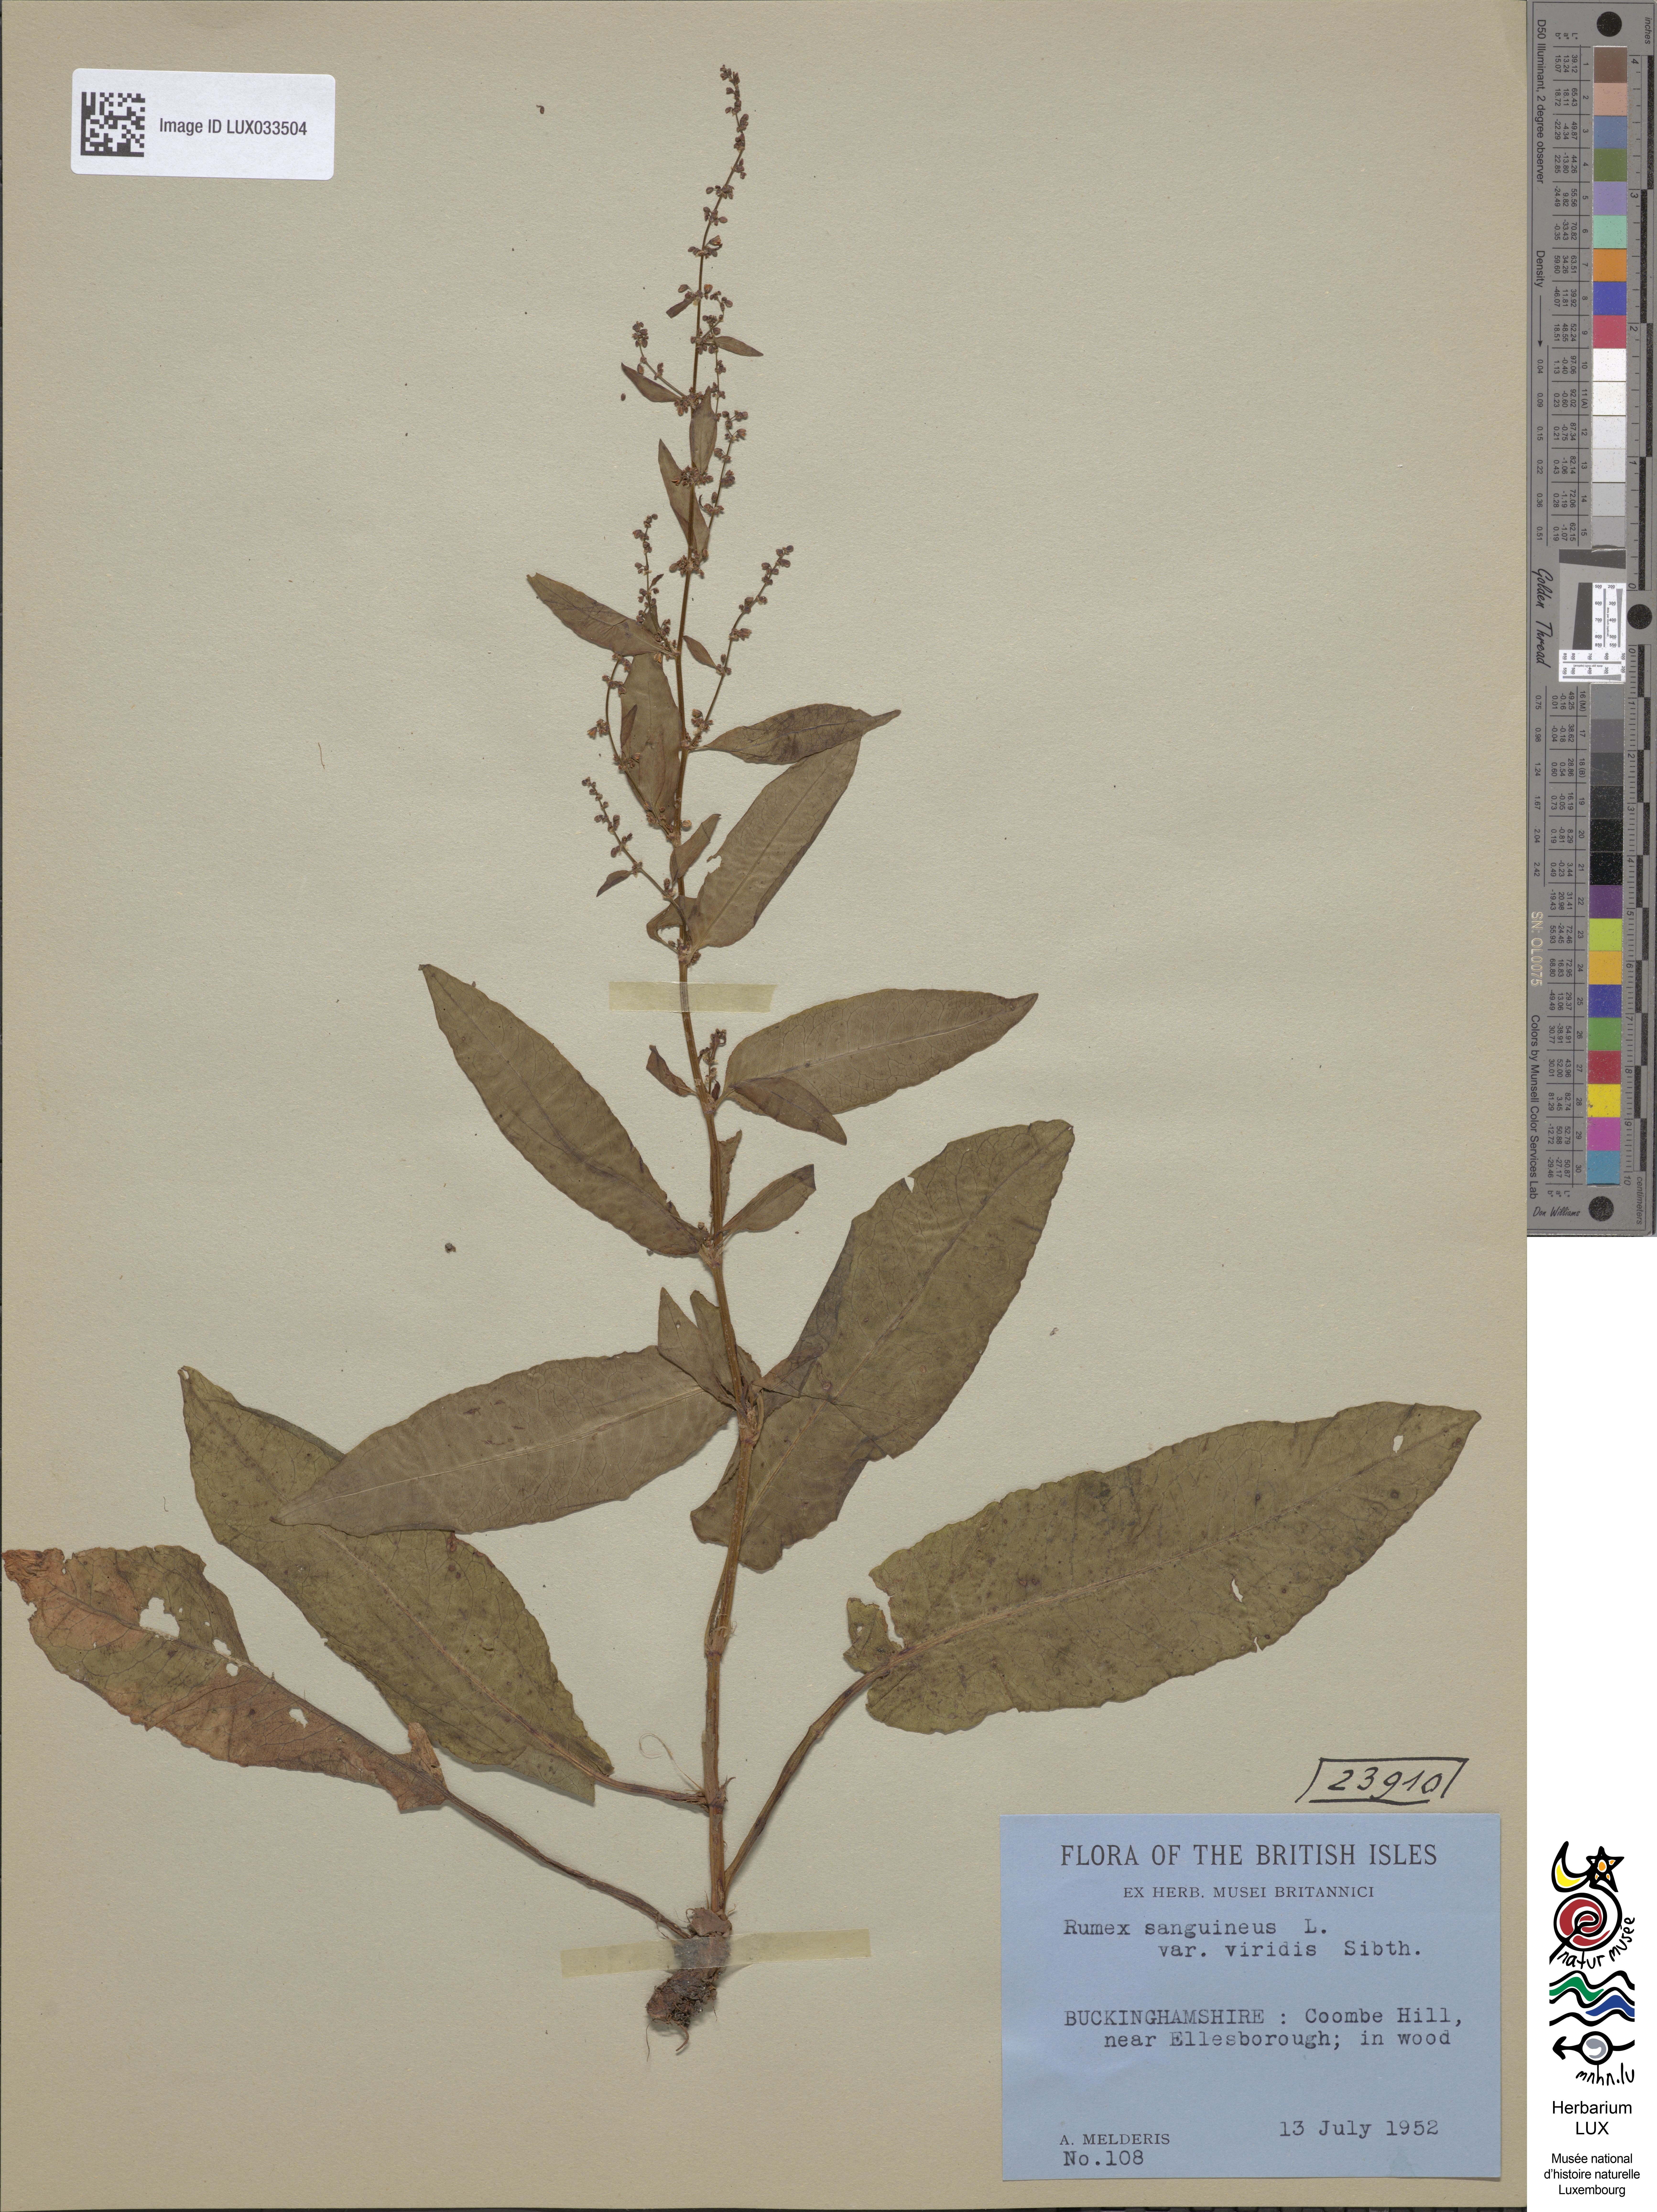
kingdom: Plantae
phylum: Tracheophyta
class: Magnoliopsida
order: Caryophyllales
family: Polygonaceae
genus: Rumex
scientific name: Rumex sanguineus
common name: Wood dock
